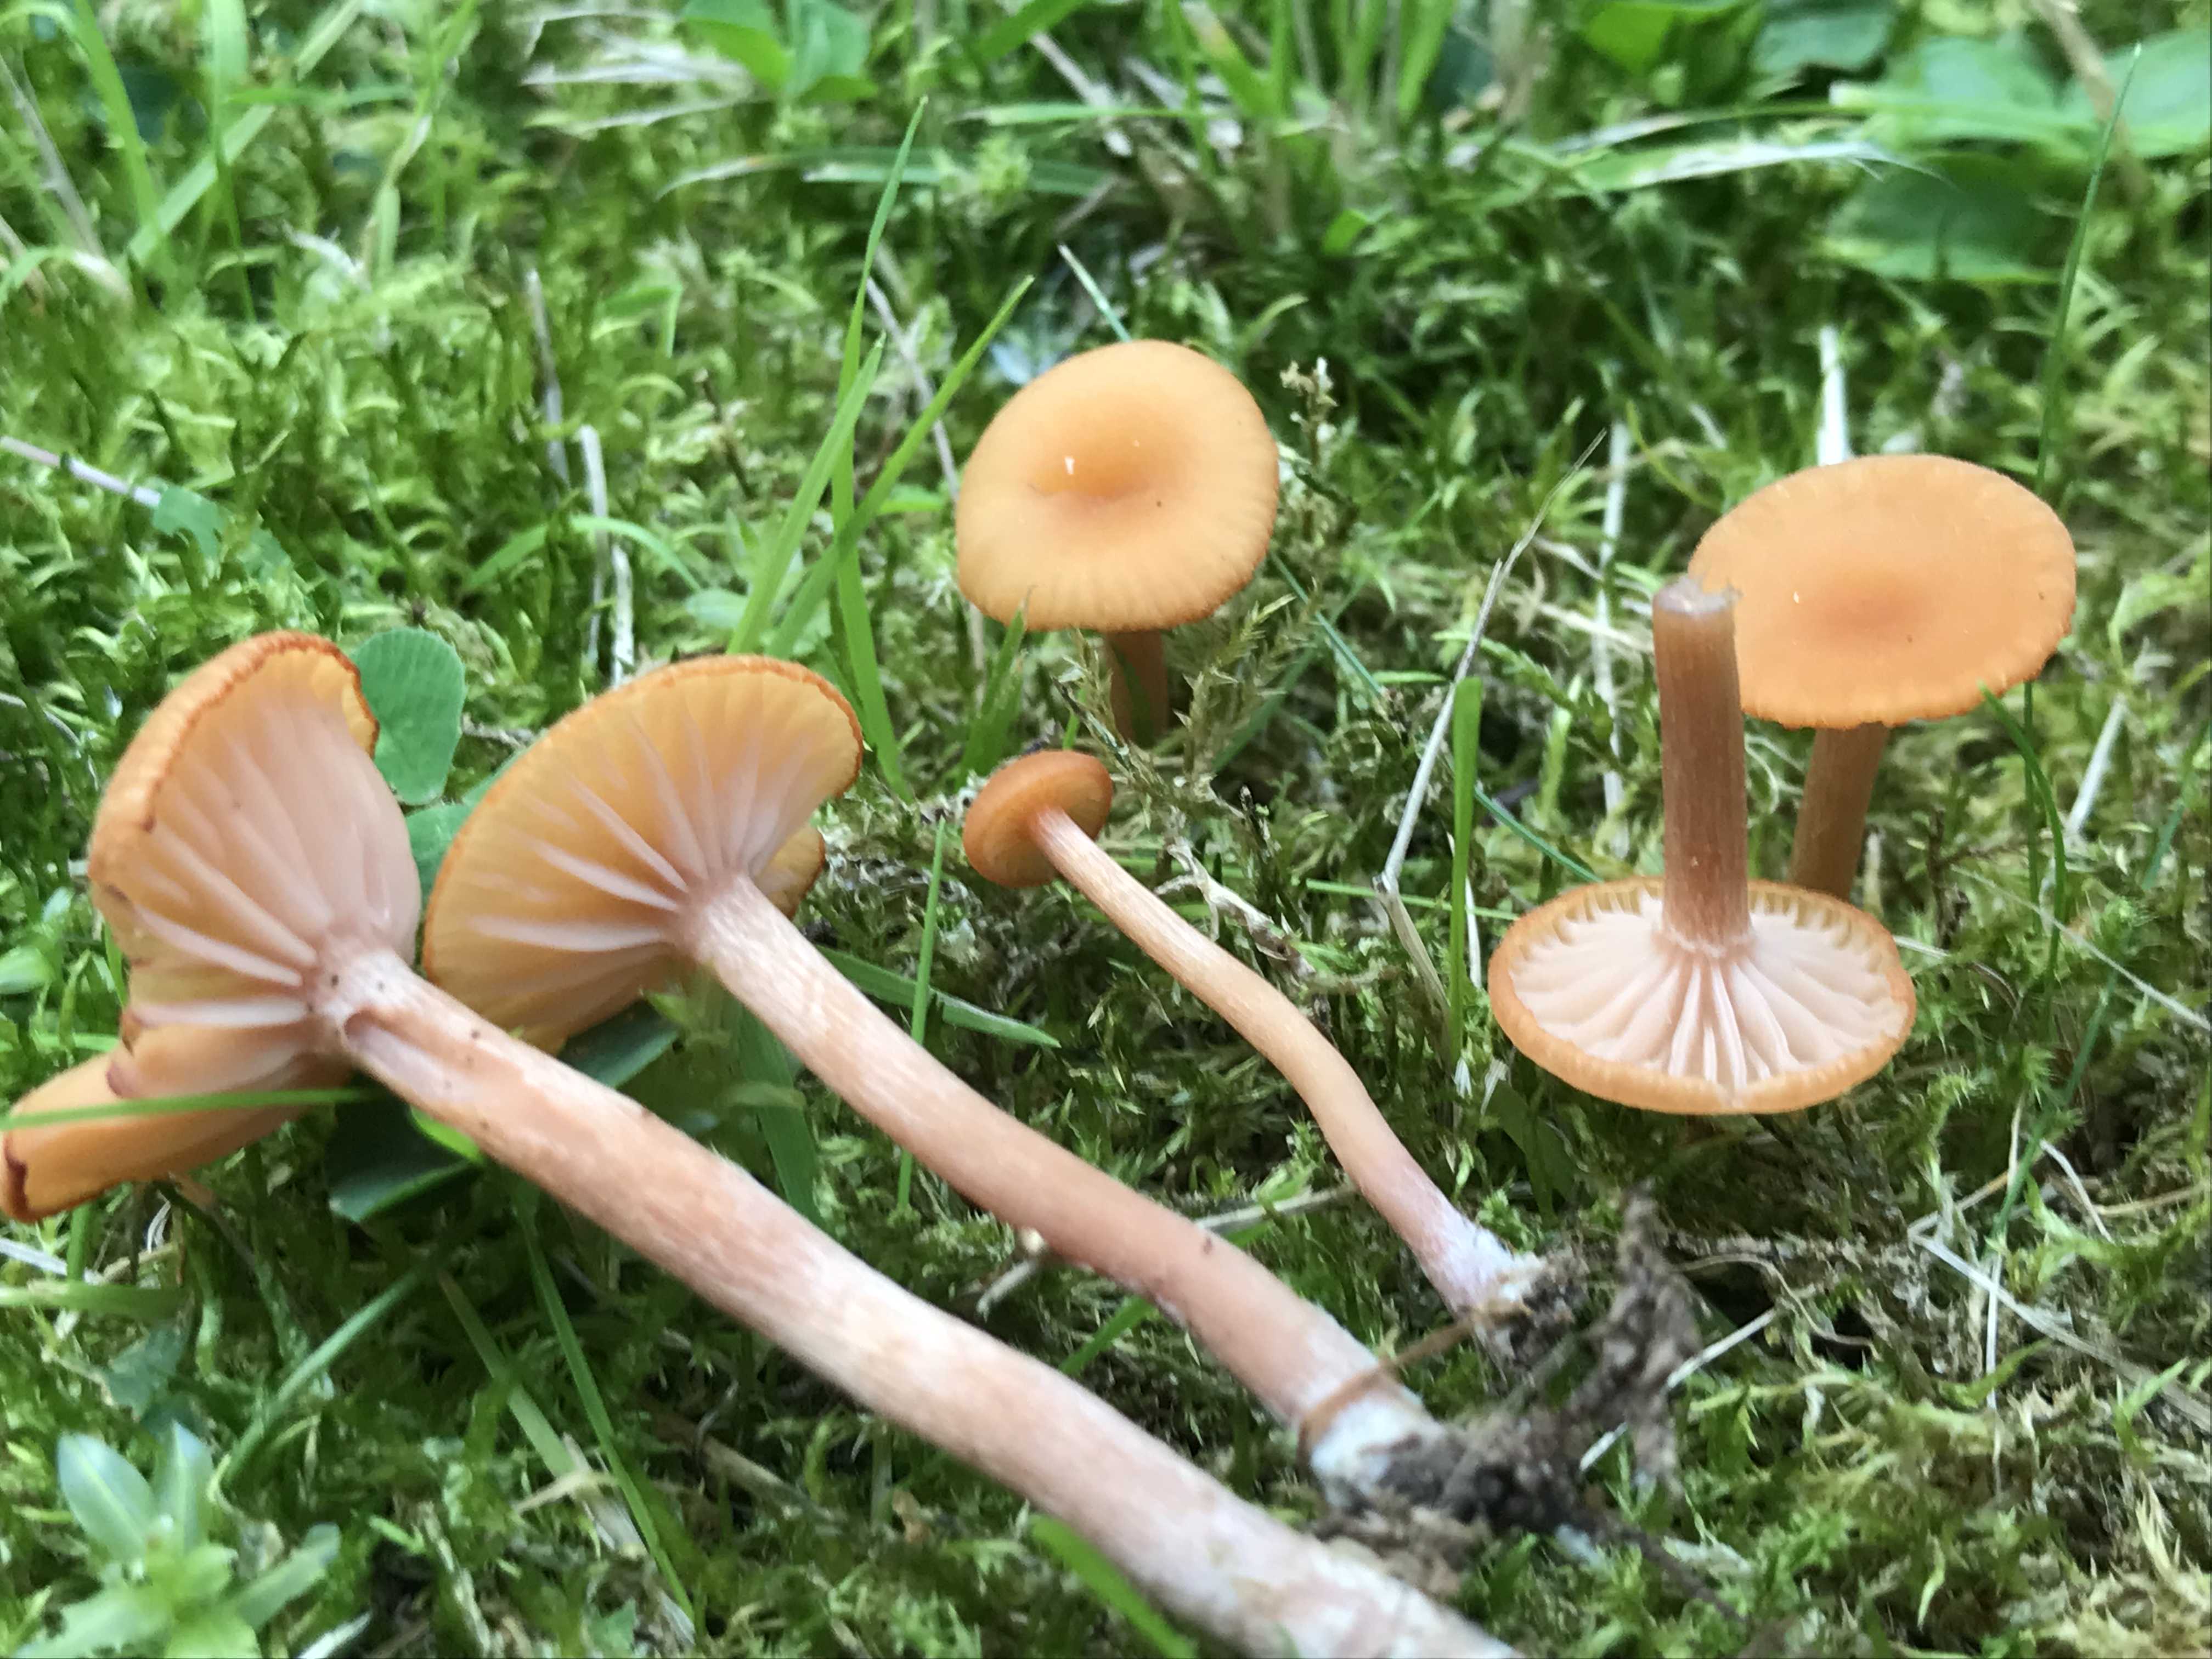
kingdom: Fungi
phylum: Basidiomycota
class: Agaricomycetes
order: Agaricales
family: Hydnangiaceae
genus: Laccaria
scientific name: Laccaria laccata
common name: rød ametysthat
